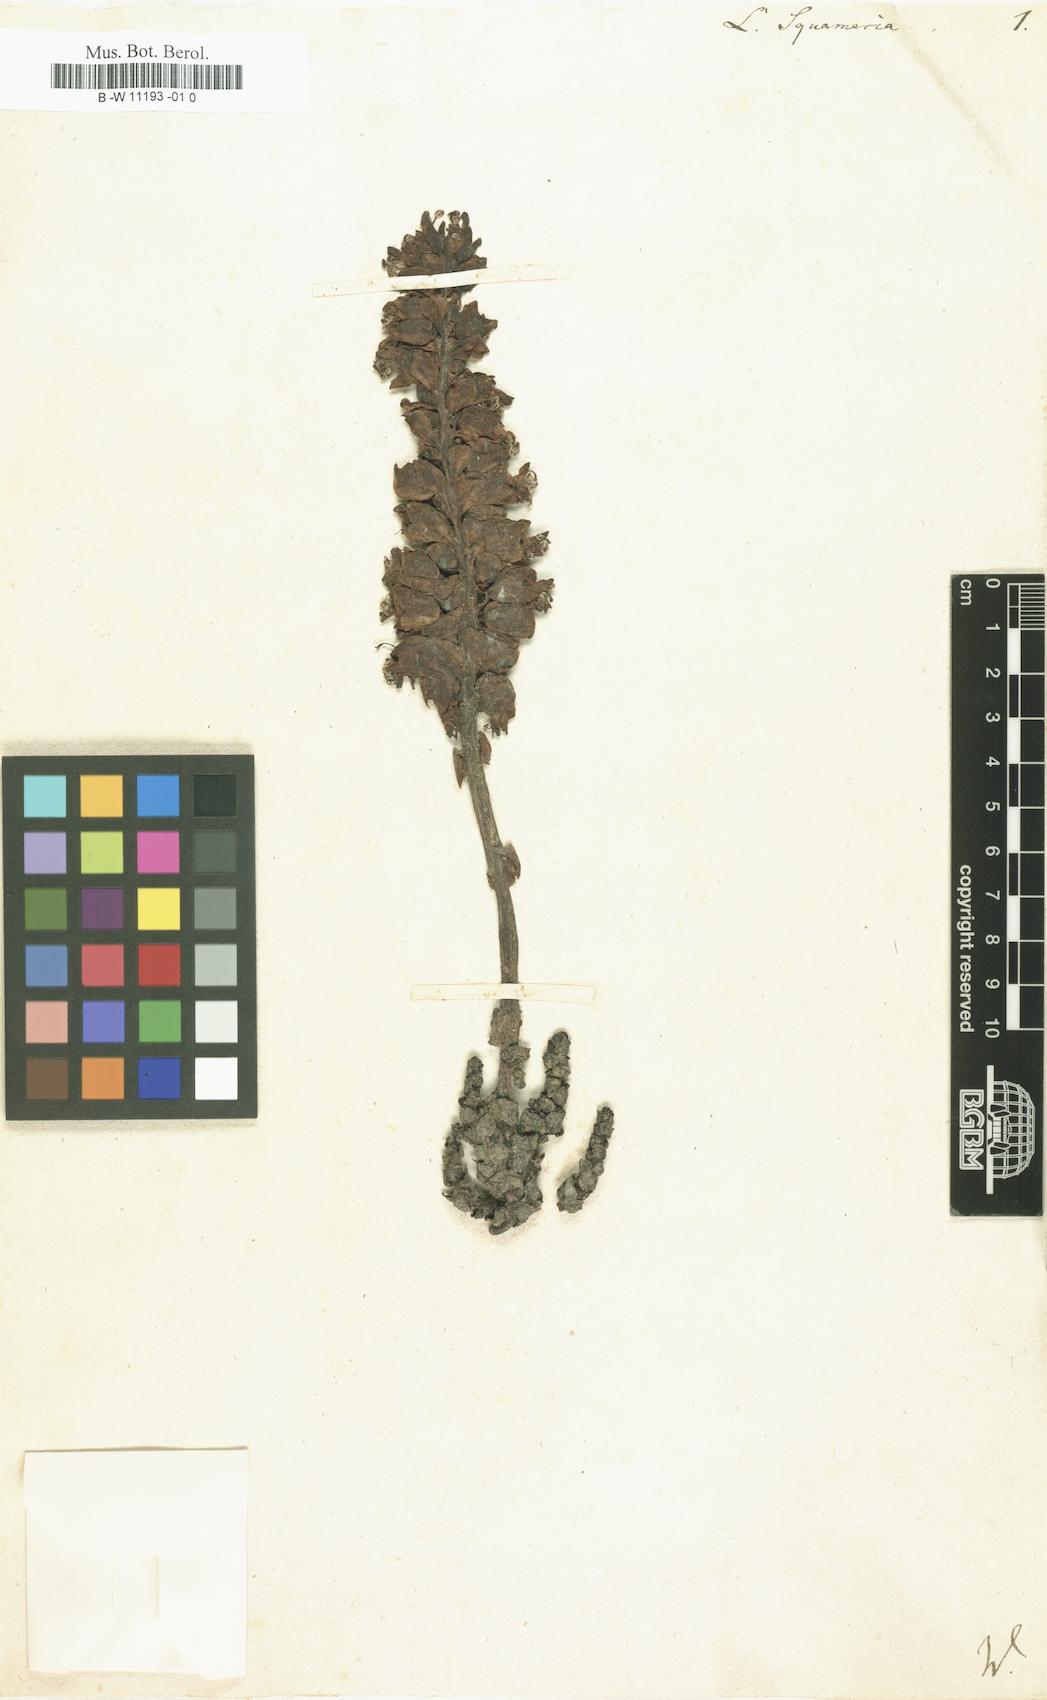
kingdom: Plantae
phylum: Tracheophyta
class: Magnoliopsida
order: Lamiales
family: Orobanchaceae
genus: Lathraea
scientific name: Lathraea squamaria
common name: Toothwort
